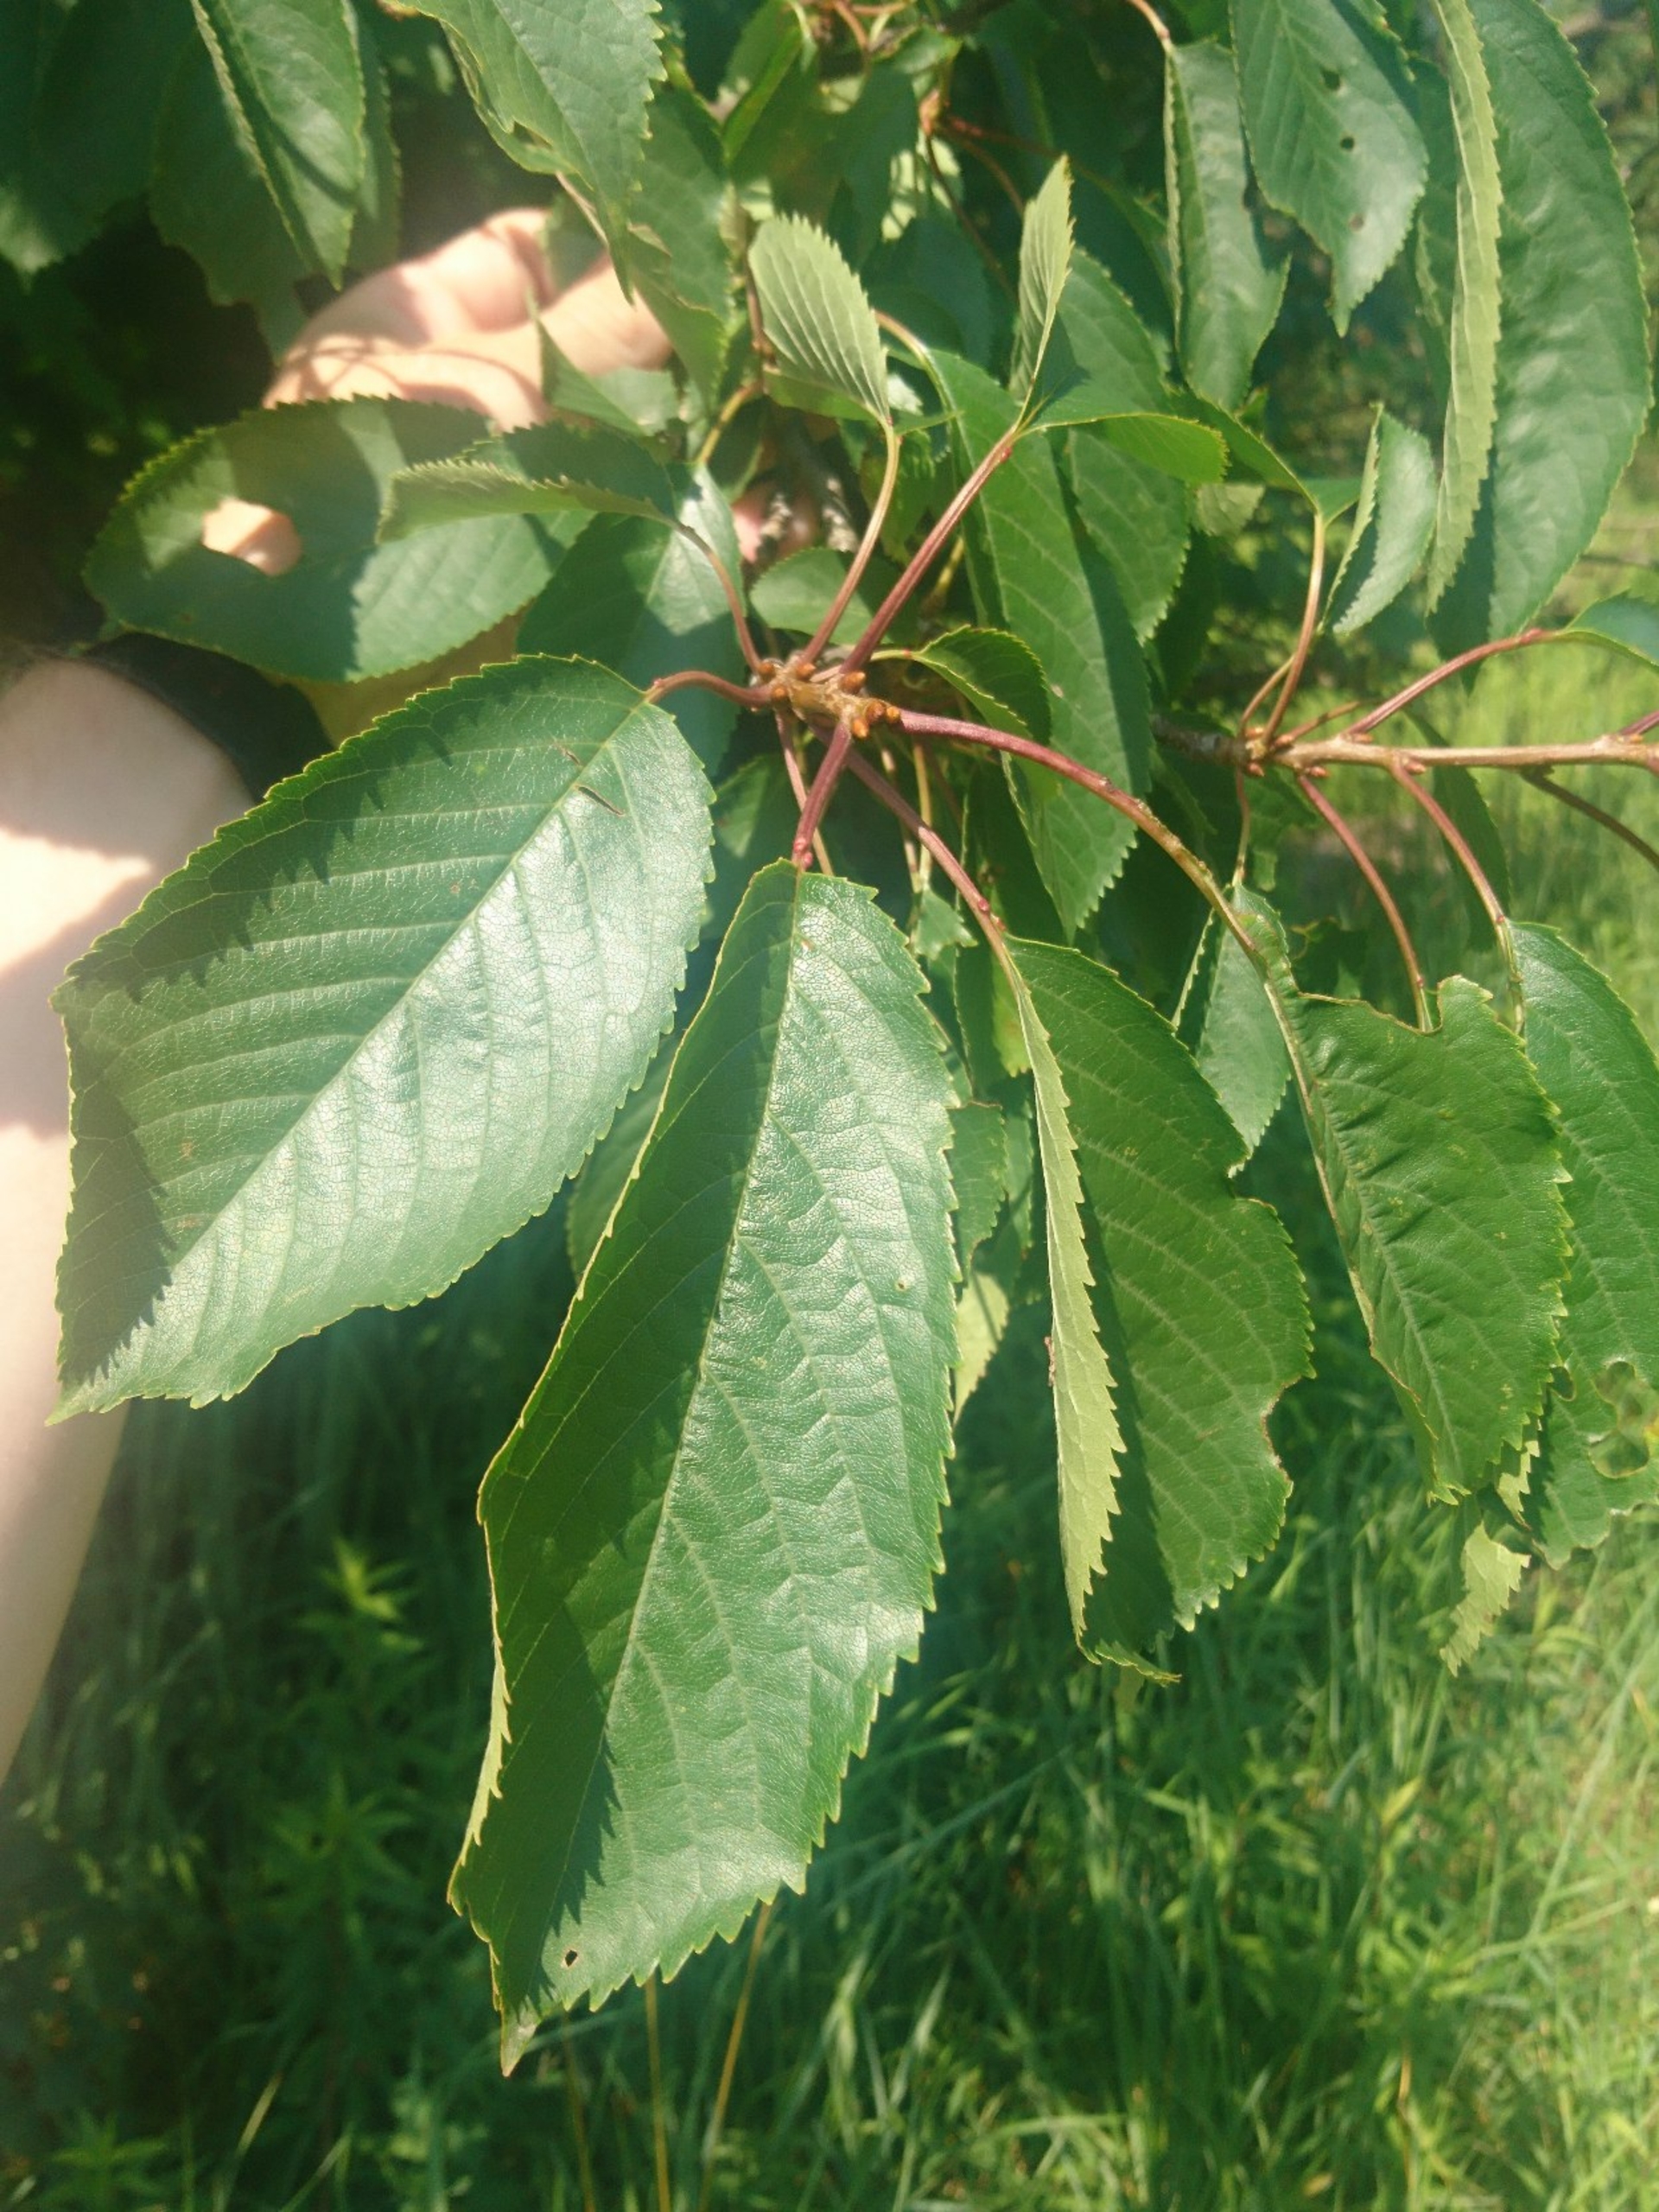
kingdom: Plantae
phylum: Tracheophyta
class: Magnoliopsida
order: Rosales
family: Rosaceae
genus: Prunus
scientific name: Prunus avium
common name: Fugle-kirsebær
